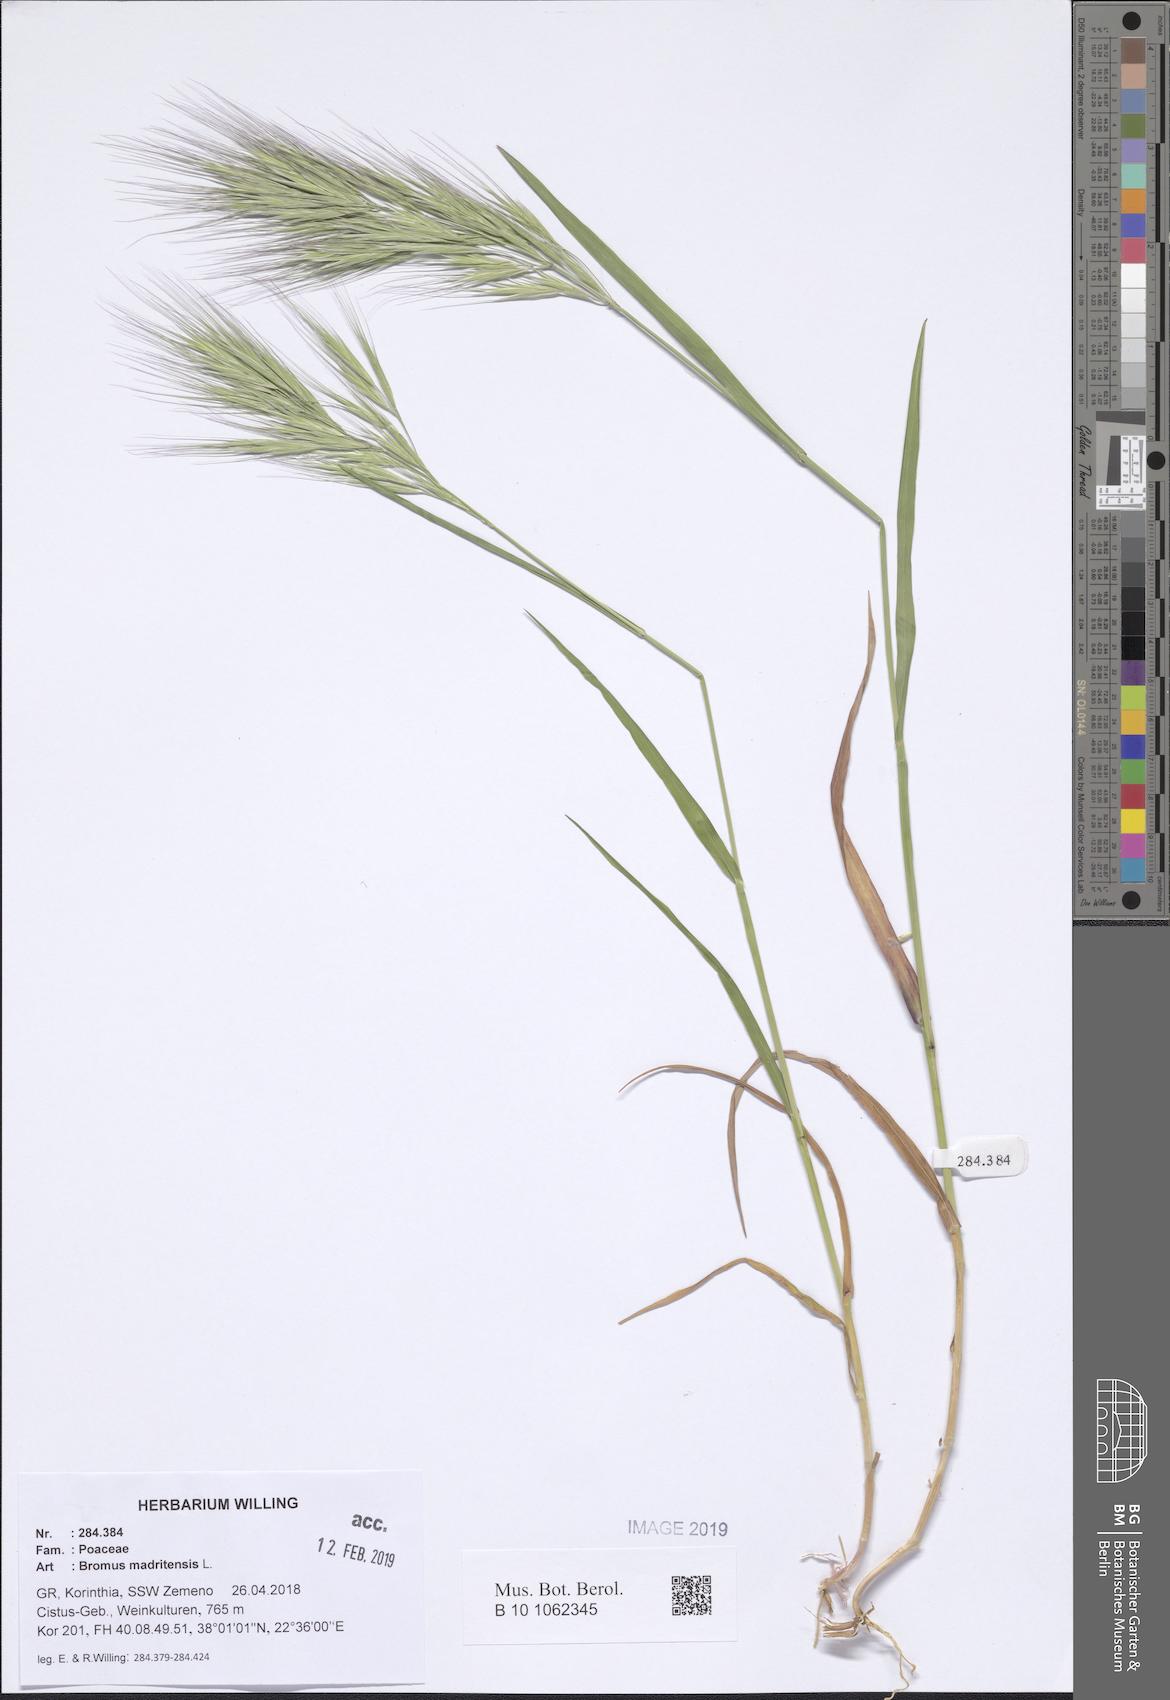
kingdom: Plantae
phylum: Tracheophyta
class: Liliopsida
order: Poales
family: Poaceae
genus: Bromus
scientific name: Bromus madritensis
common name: Compact brome
